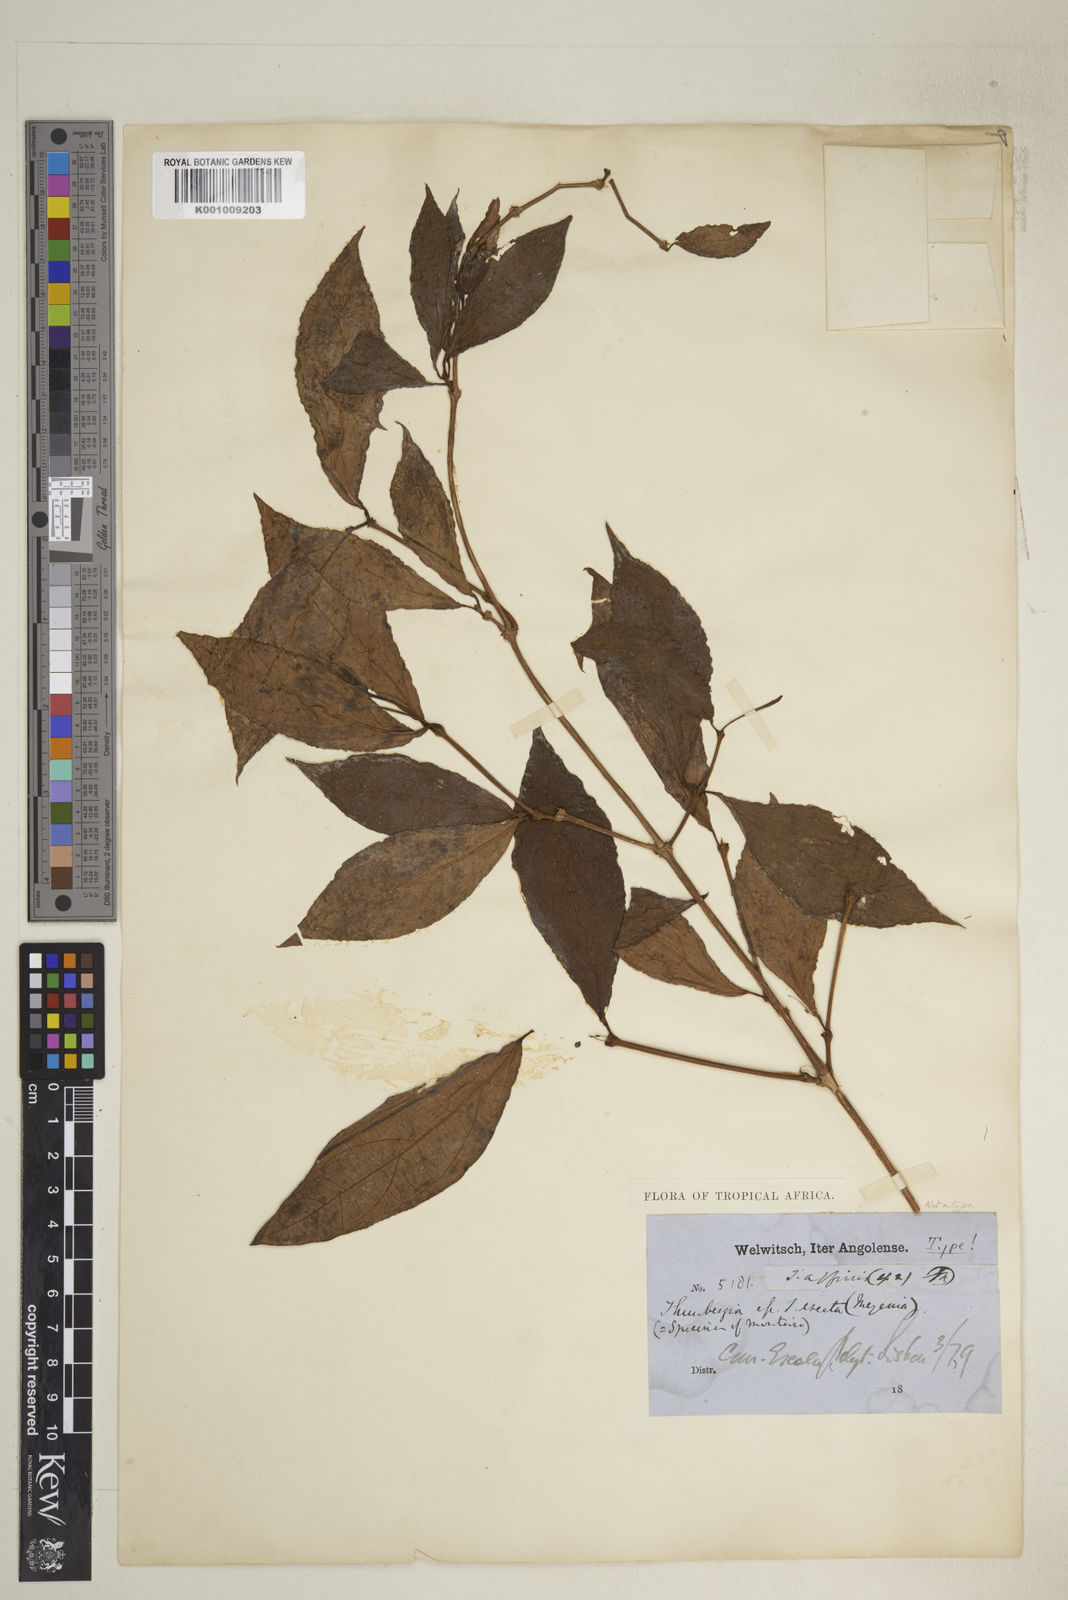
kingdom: Plantae
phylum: Tracheophyta
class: Magnoliopsida
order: Lamiales
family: Acanthaceae
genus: Thunbergia
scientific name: Thunbergia affinis
